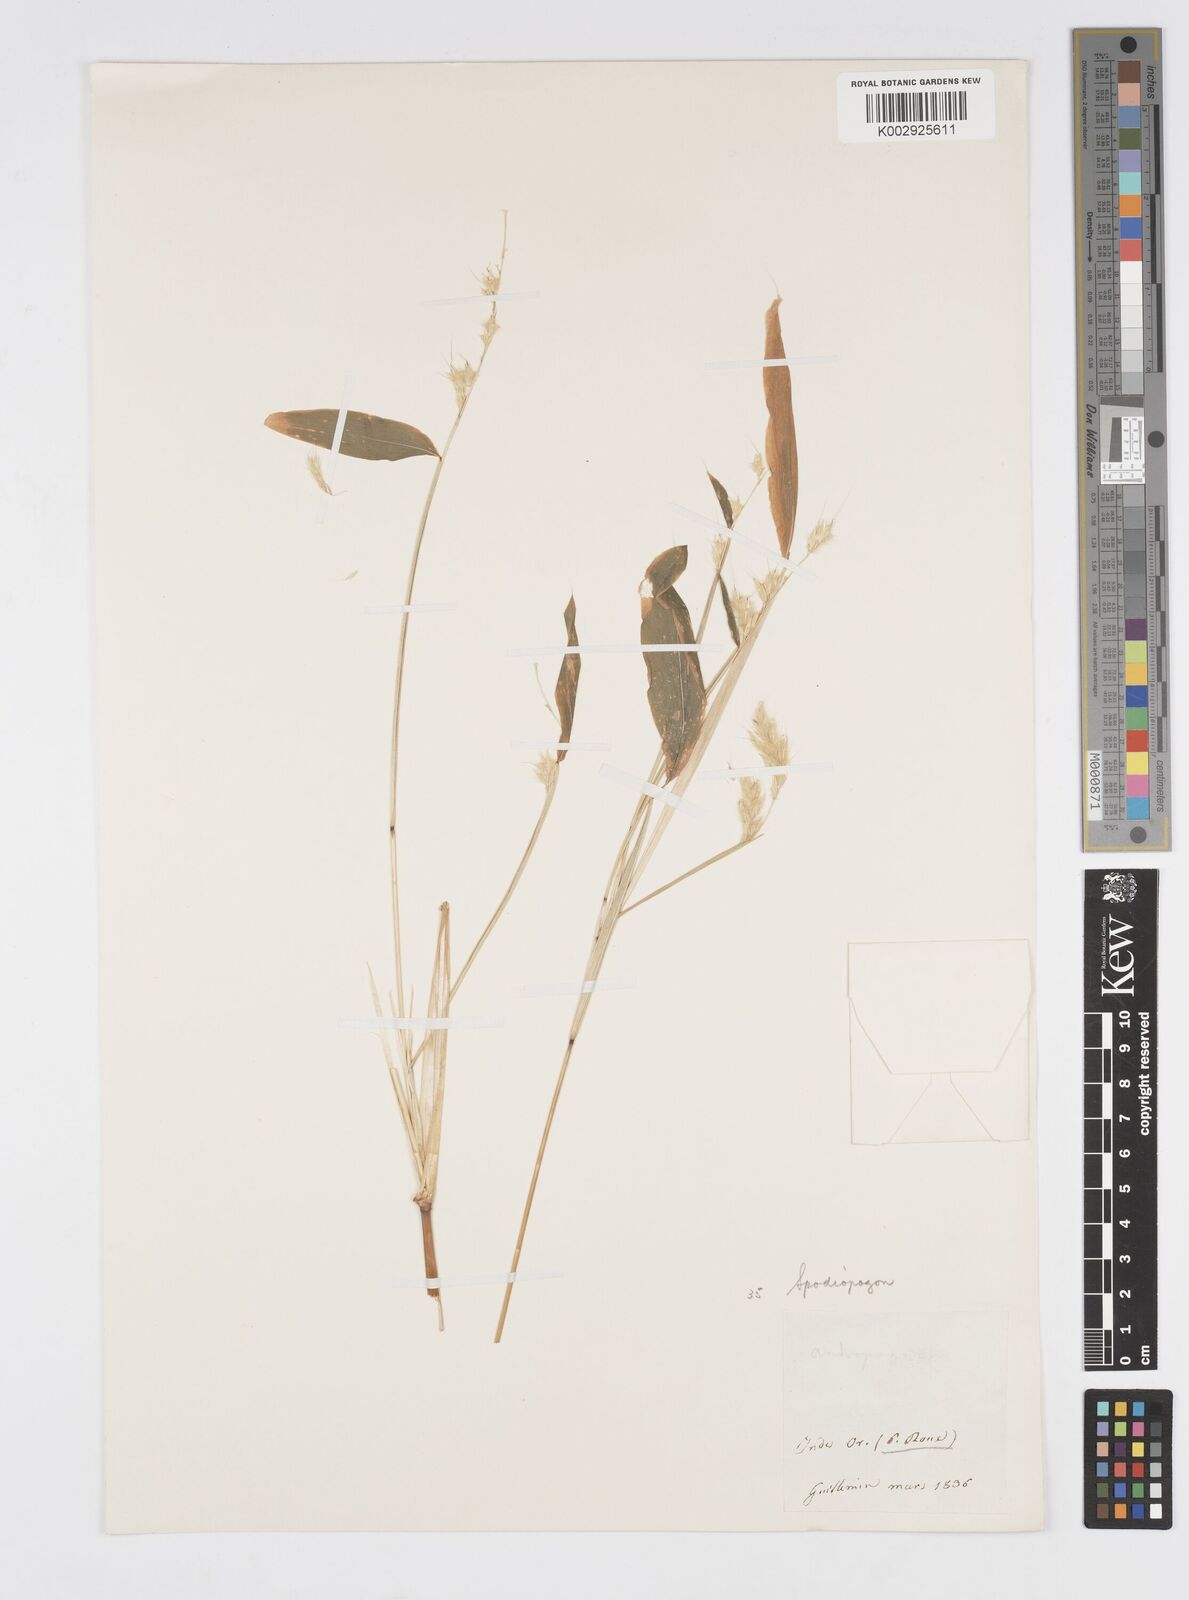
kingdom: Plantae
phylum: Tracheophyta
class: Liliopsida
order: Poales
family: Poaceae
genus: Spodiopogon
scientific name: Spodiopogon rhizophorus
